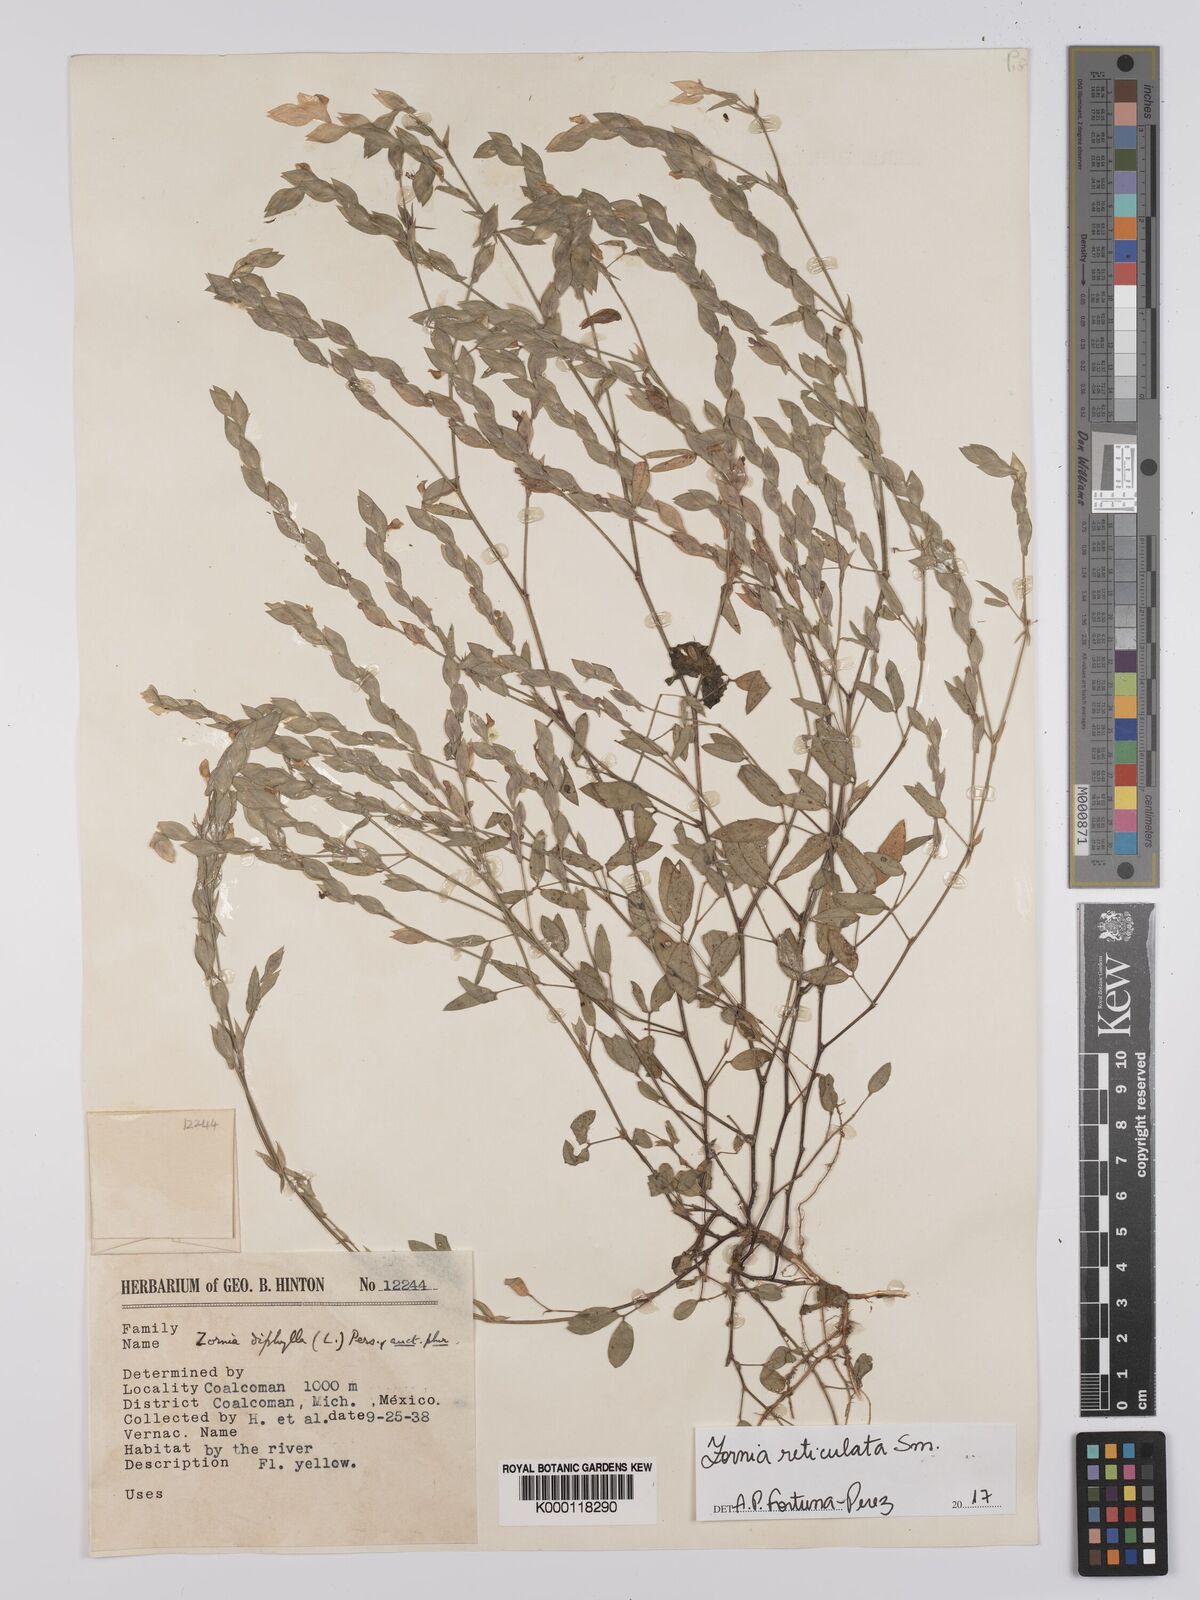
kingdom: Plantae
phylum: Tracheophyta
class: Magnoliopsida
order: Fabales
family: Fabaceae
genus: Zornia
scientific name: Zornia reticulata
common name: Reticulate viperina
